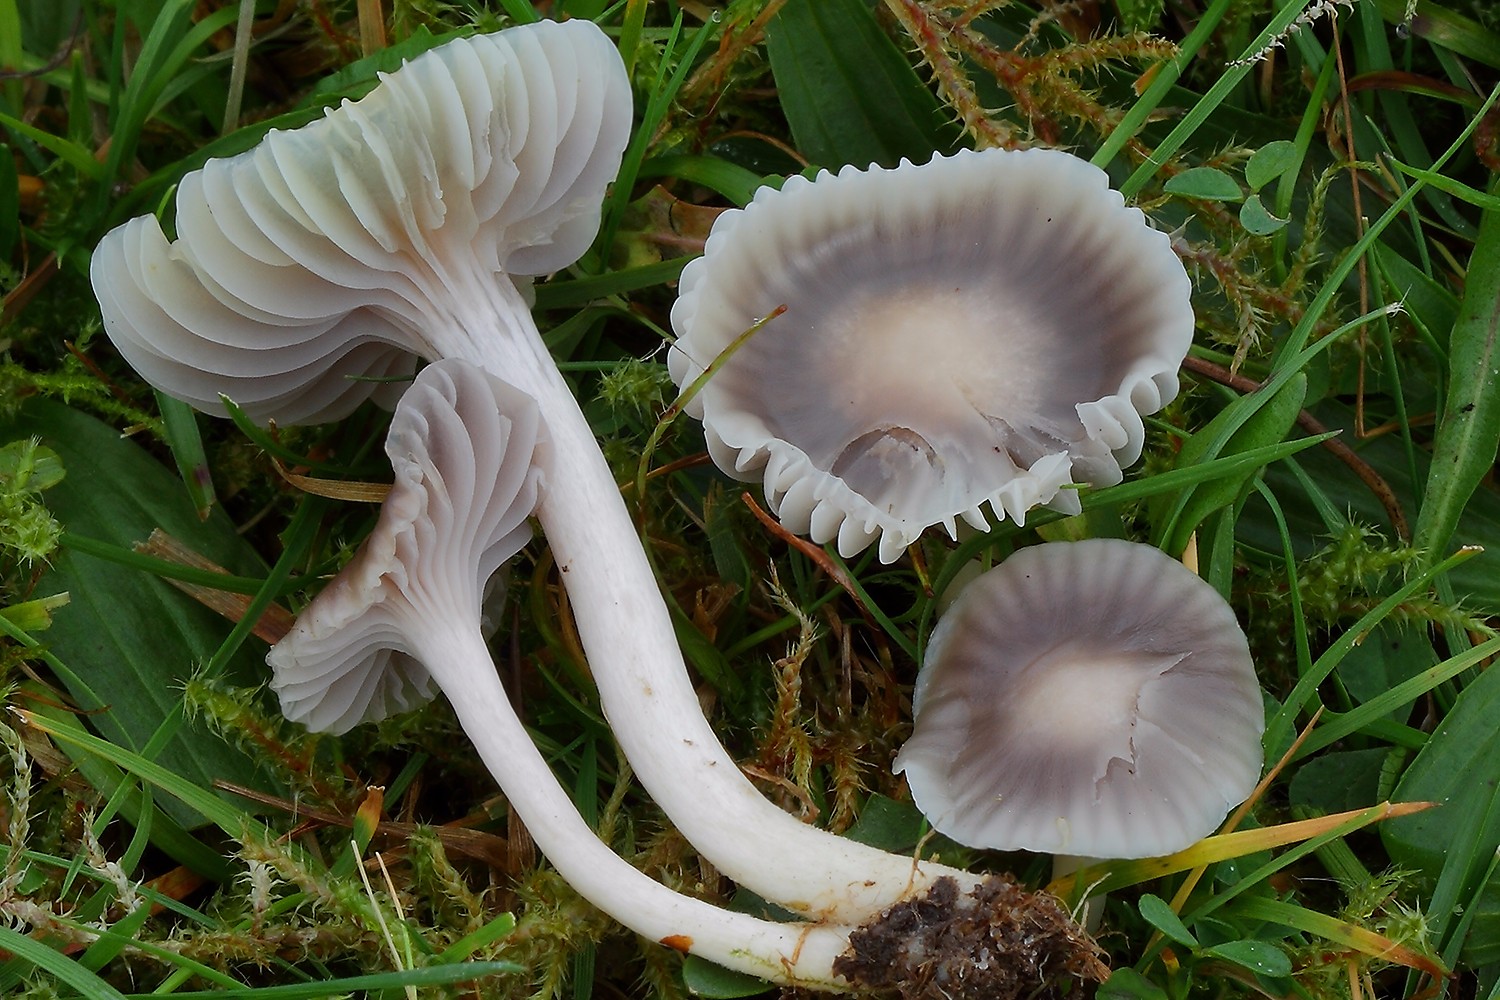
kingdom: Fungi
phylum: Basidiomycota
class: Agaricomycetes
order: Agaricales
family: Hygrophoraceae
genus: Cuphophyllus
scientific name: Cuphophyllus lacmus
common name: gråviolet vokshat
